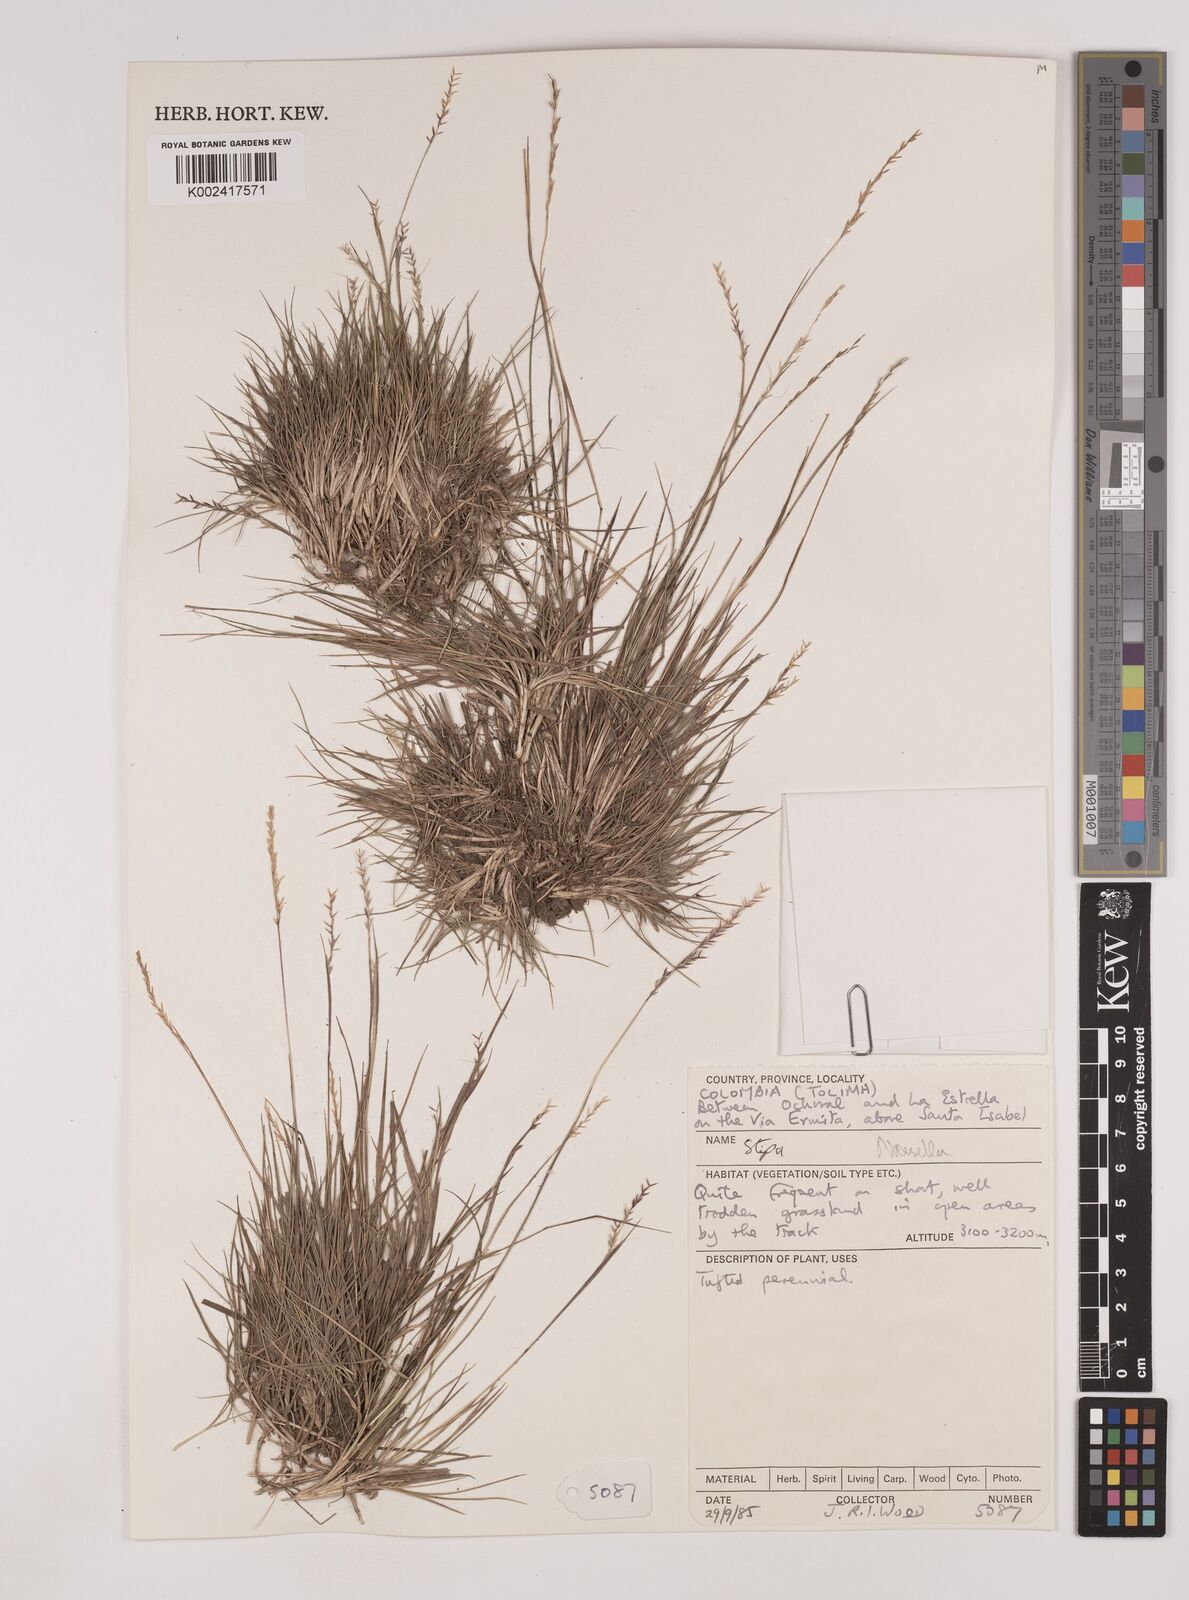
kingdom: Plantae
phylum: Tracheophyta
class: Liliopsida
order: Poales
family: Poaceae
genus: Nassella
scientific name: Nassella
